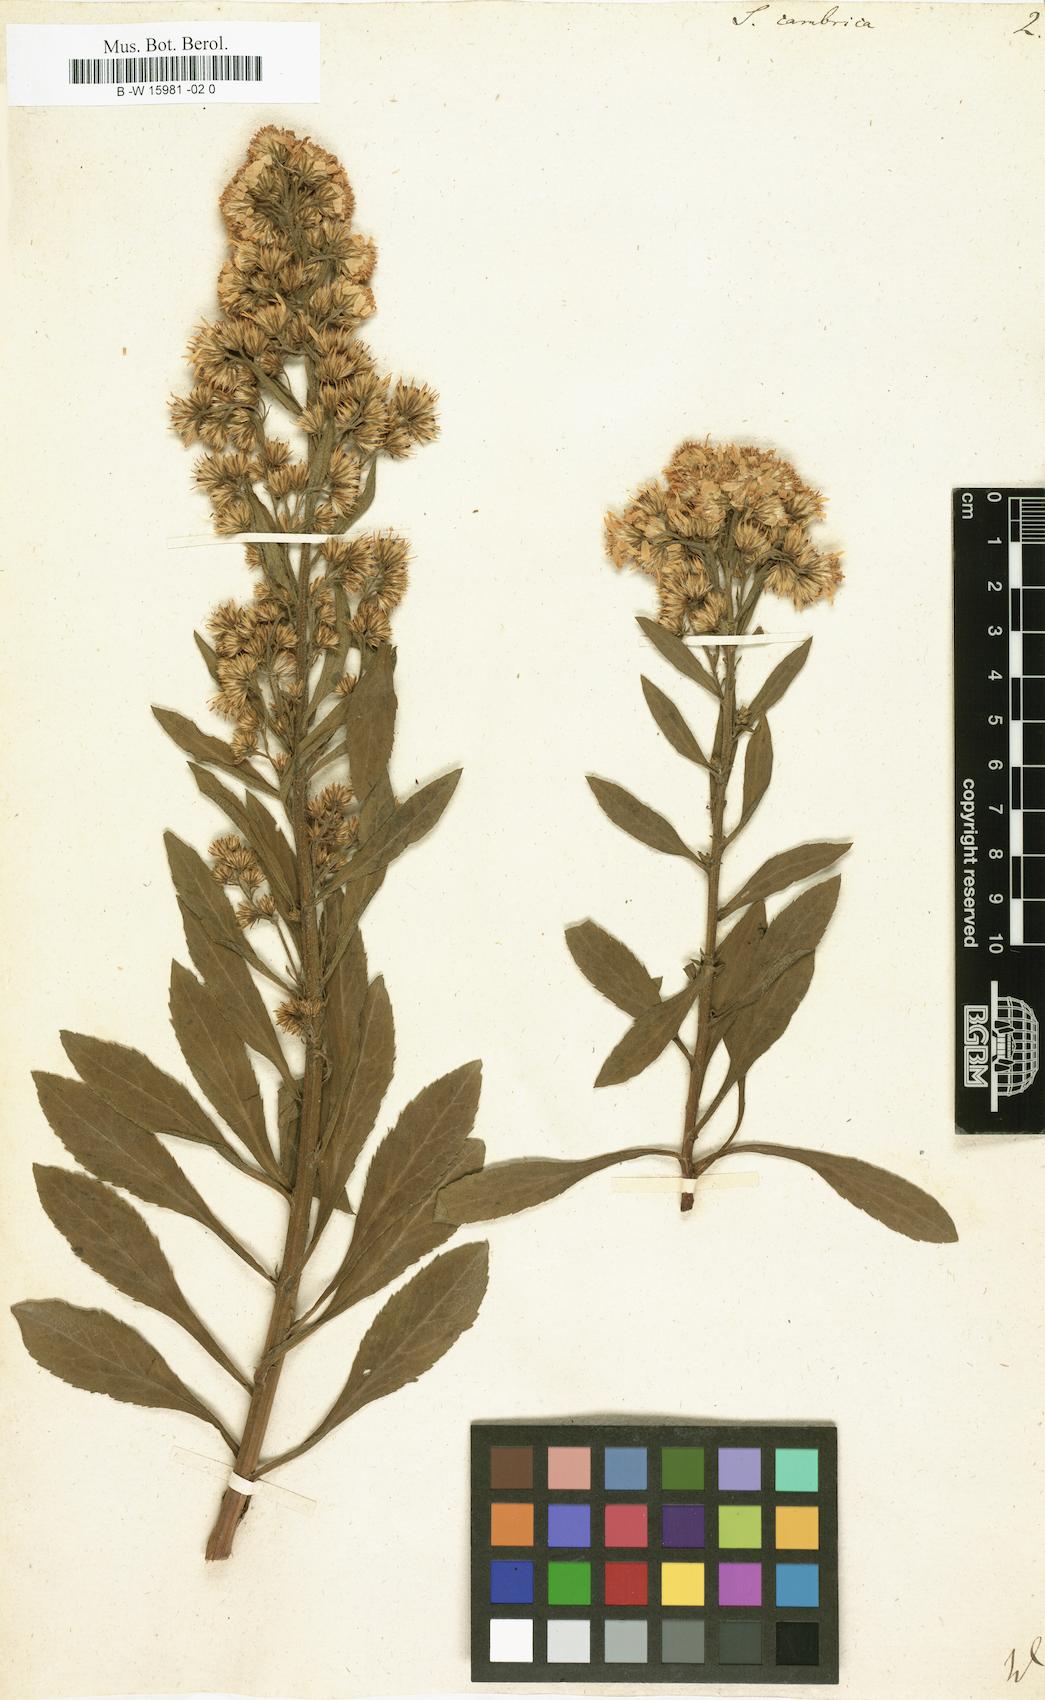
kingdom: Plantae
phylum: Tracheophyta
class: Magnoliopsida
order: Asterales
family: Asteraceae
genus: Solidago
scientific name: Solidago virgaurea
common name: Goldenrod
